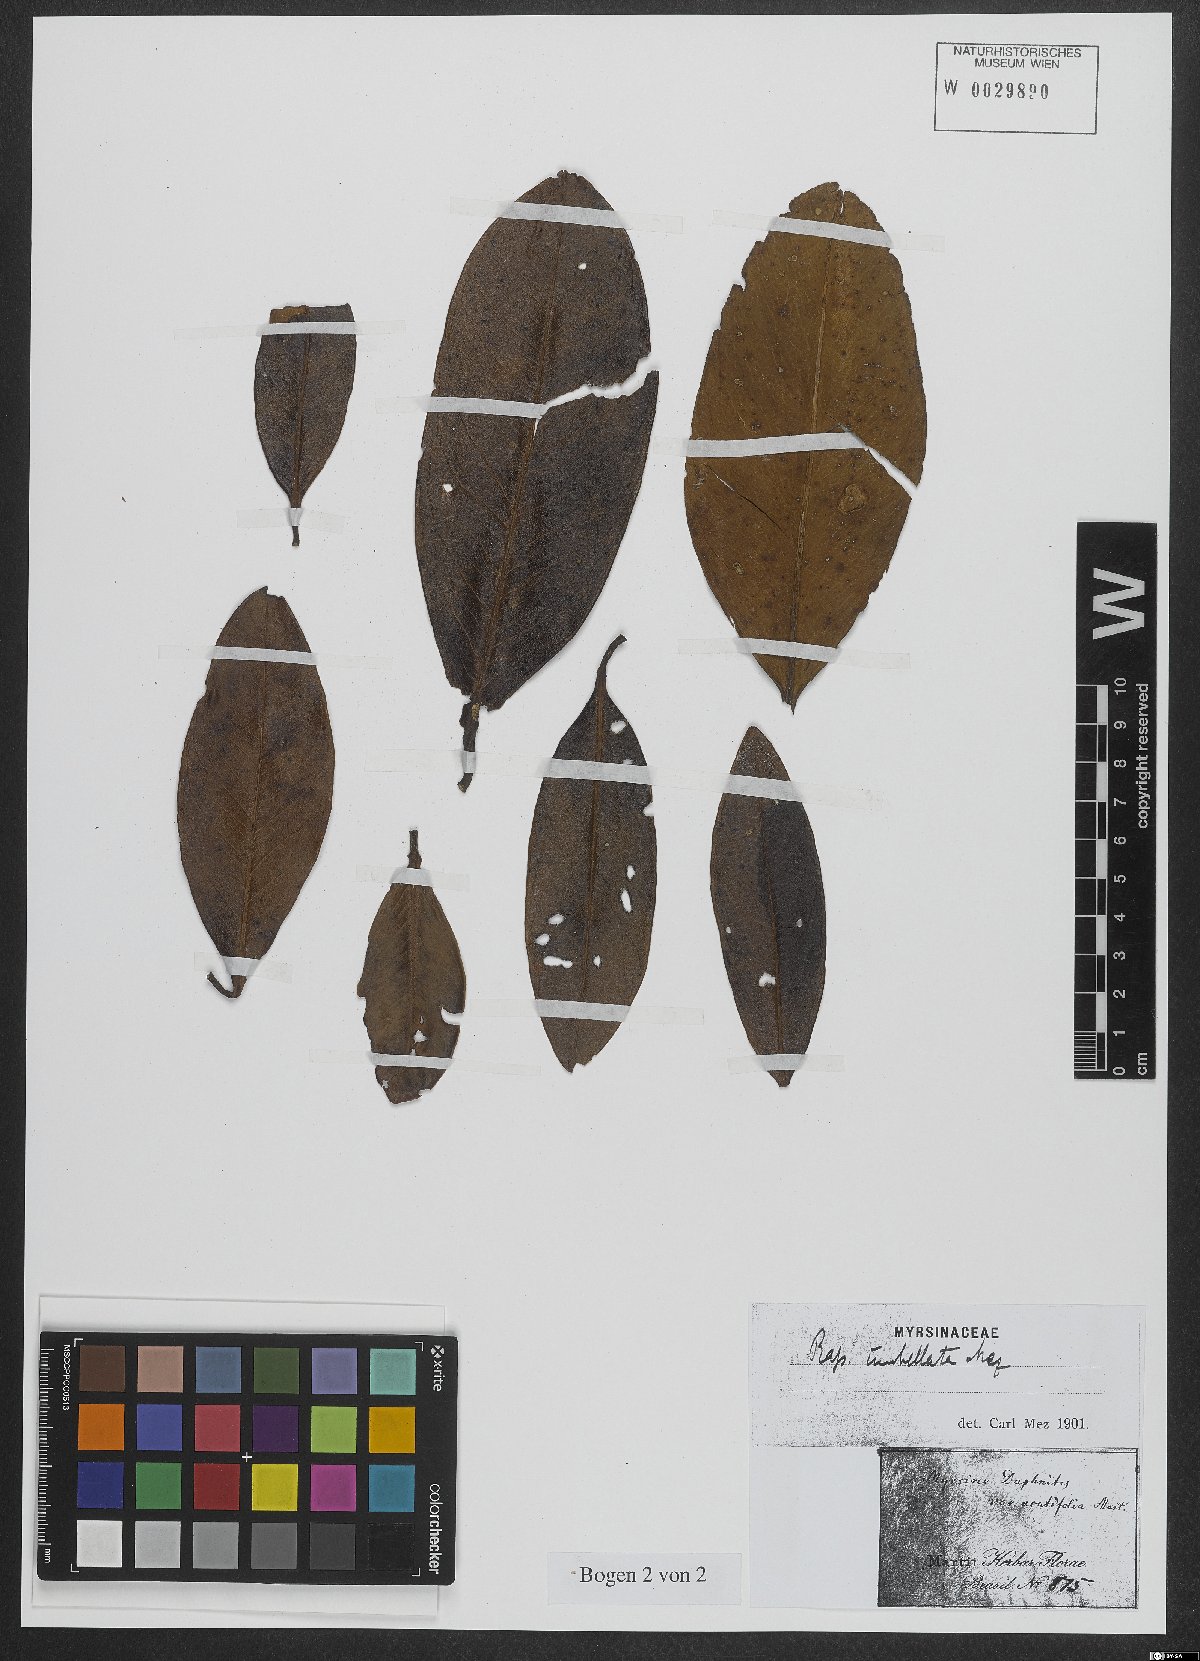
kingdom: Plantae
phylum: Tracheophyta
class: Magnoliopsida
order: Ericales
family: Primulaceae
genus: Myrsine
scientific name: Myrsine umbellata
